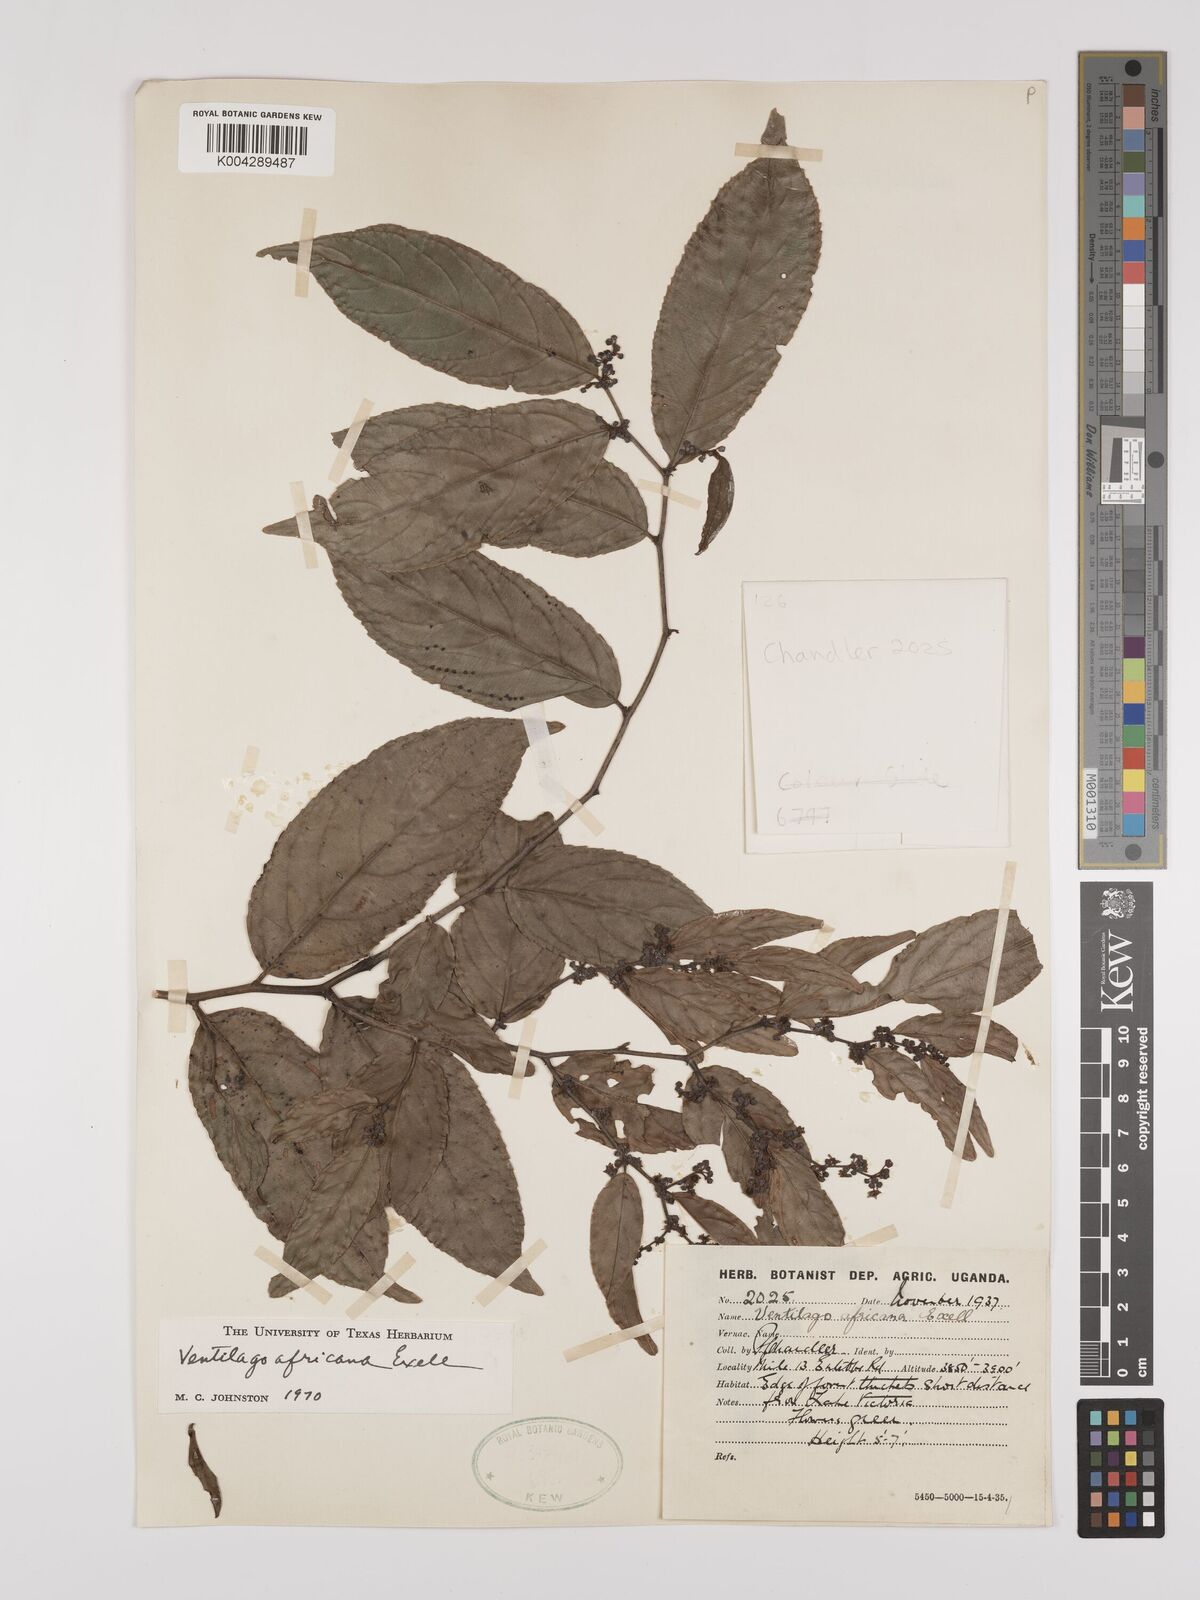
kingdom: Plantae
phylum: Tracheophyta
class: Magnoliopsida
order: Rosales
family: Rhamnaceae
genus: Ventilago
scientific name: Ventilago africana
